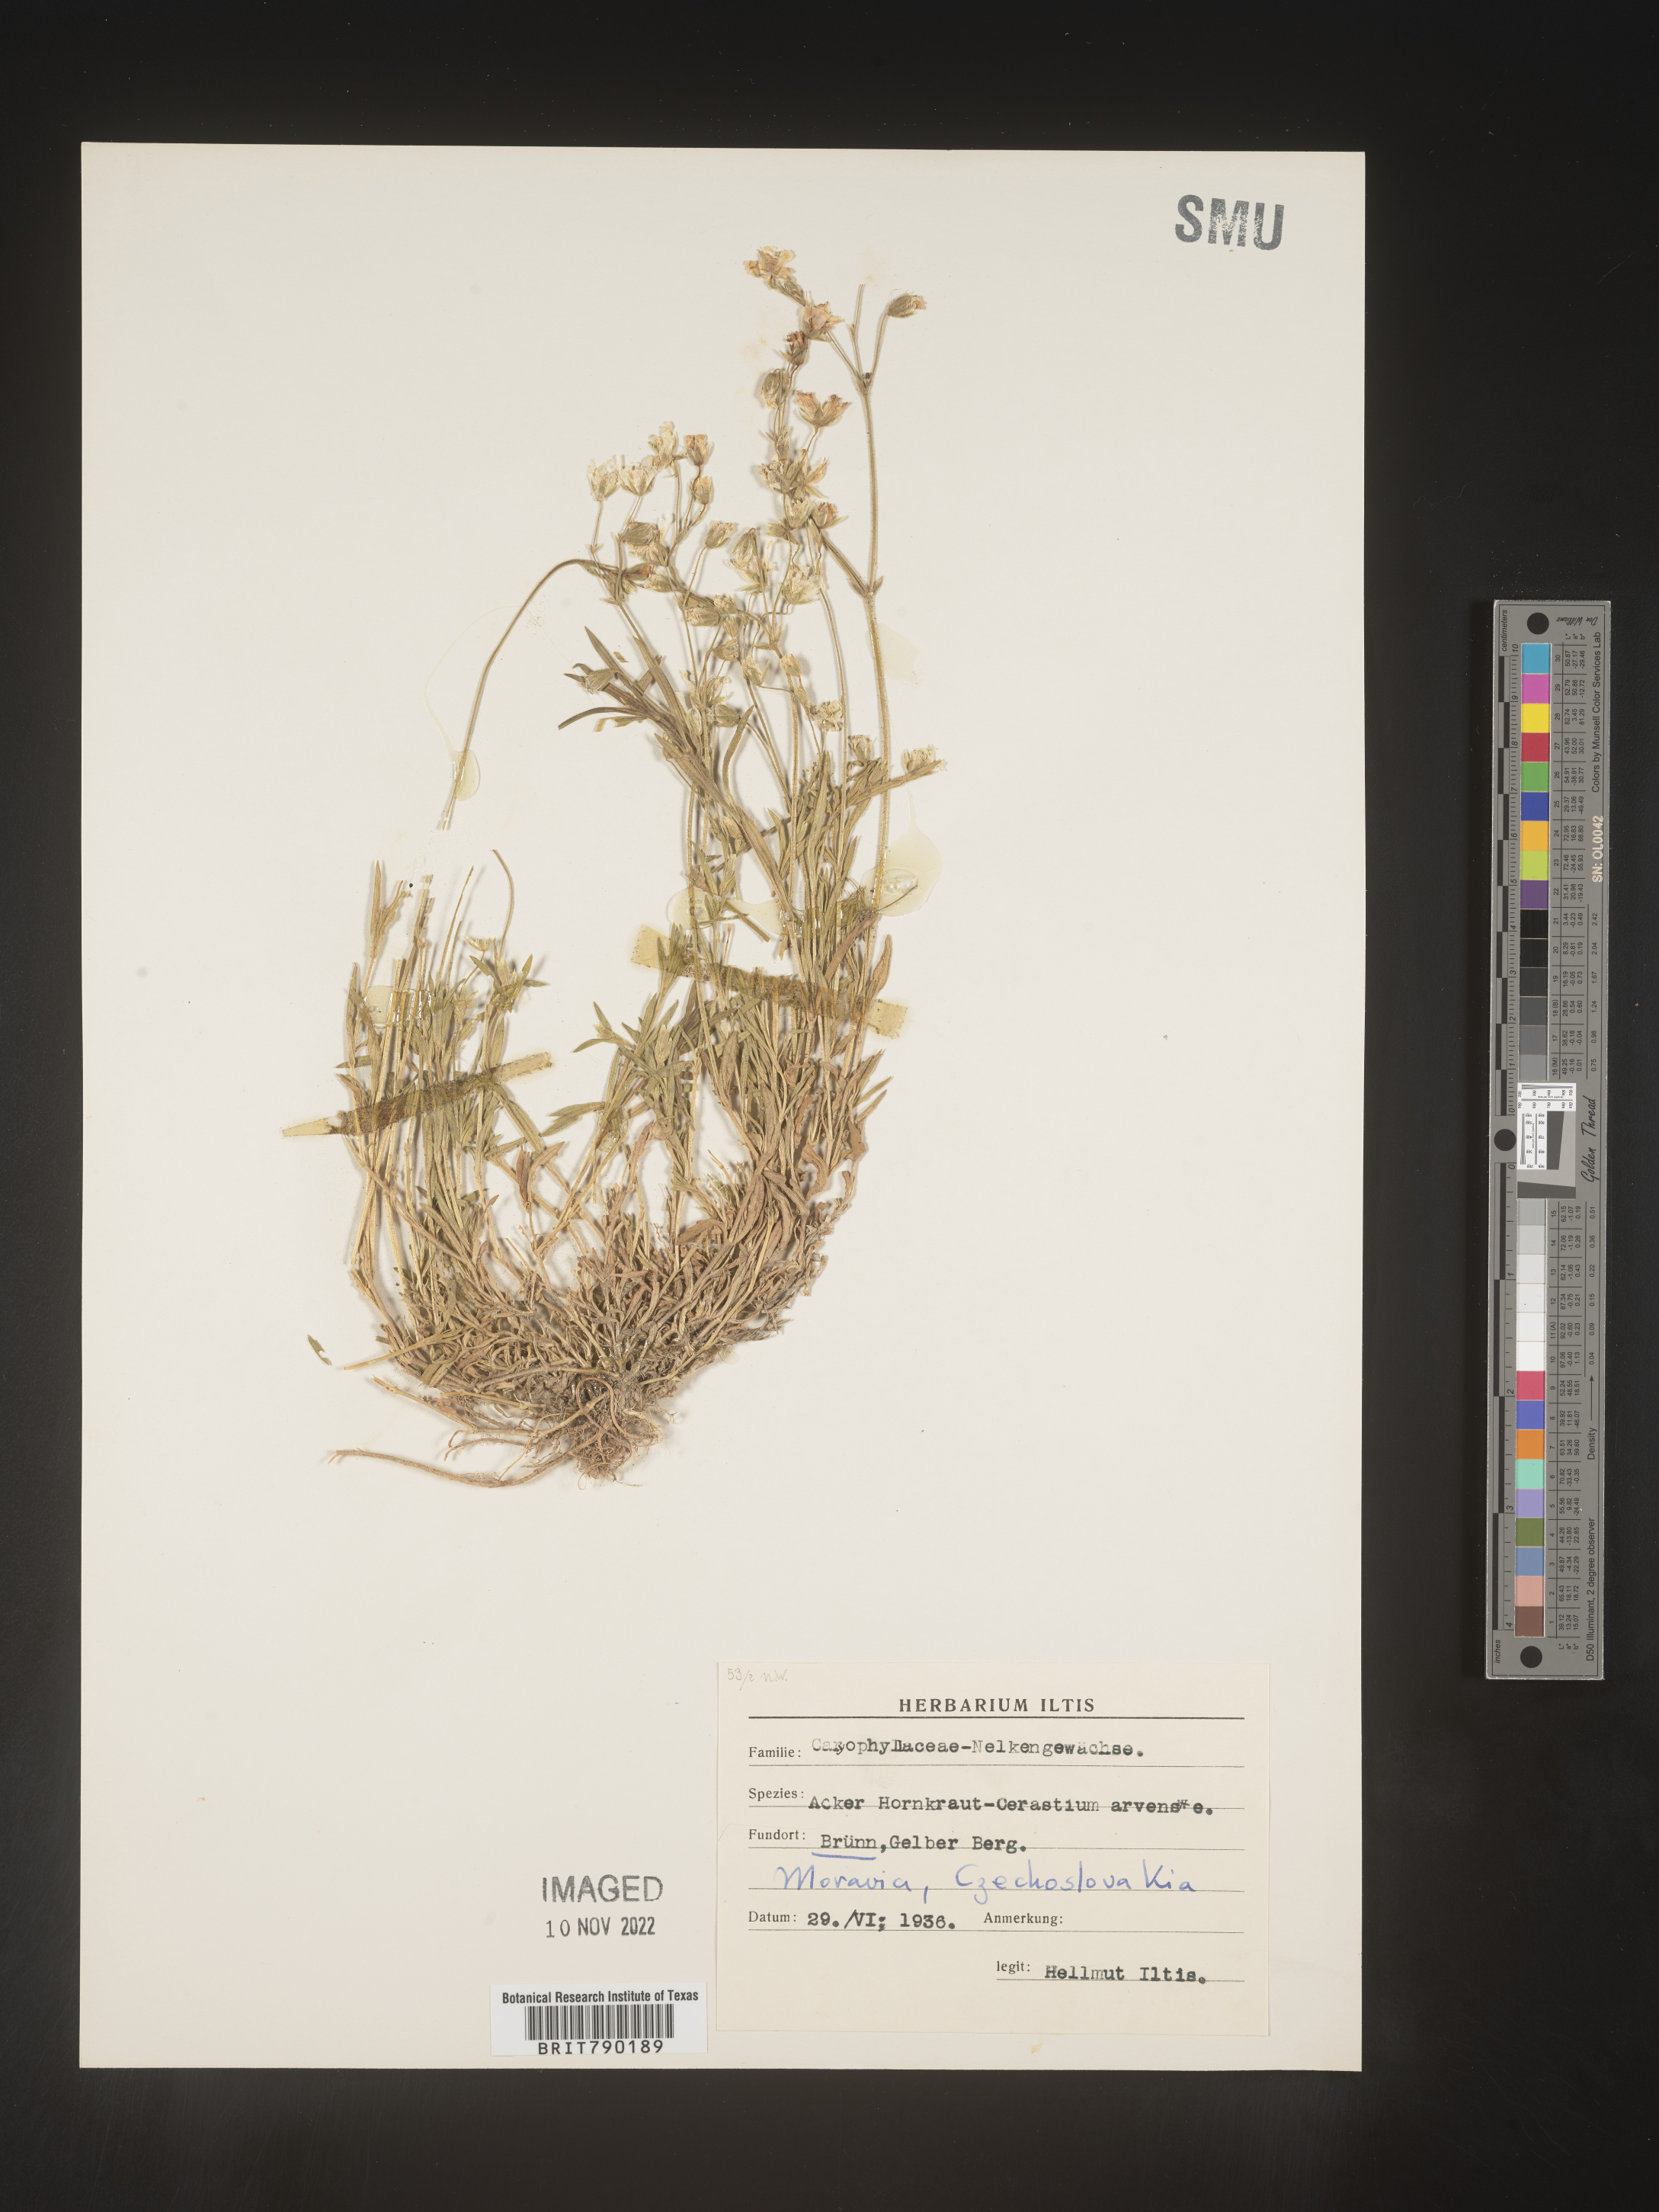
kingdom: Plantae
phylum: Tracheophyta
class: Magnoliopsida
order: Caryophyllales
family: Caryophyllaceae
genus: Cerastium
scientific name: Cerastium
